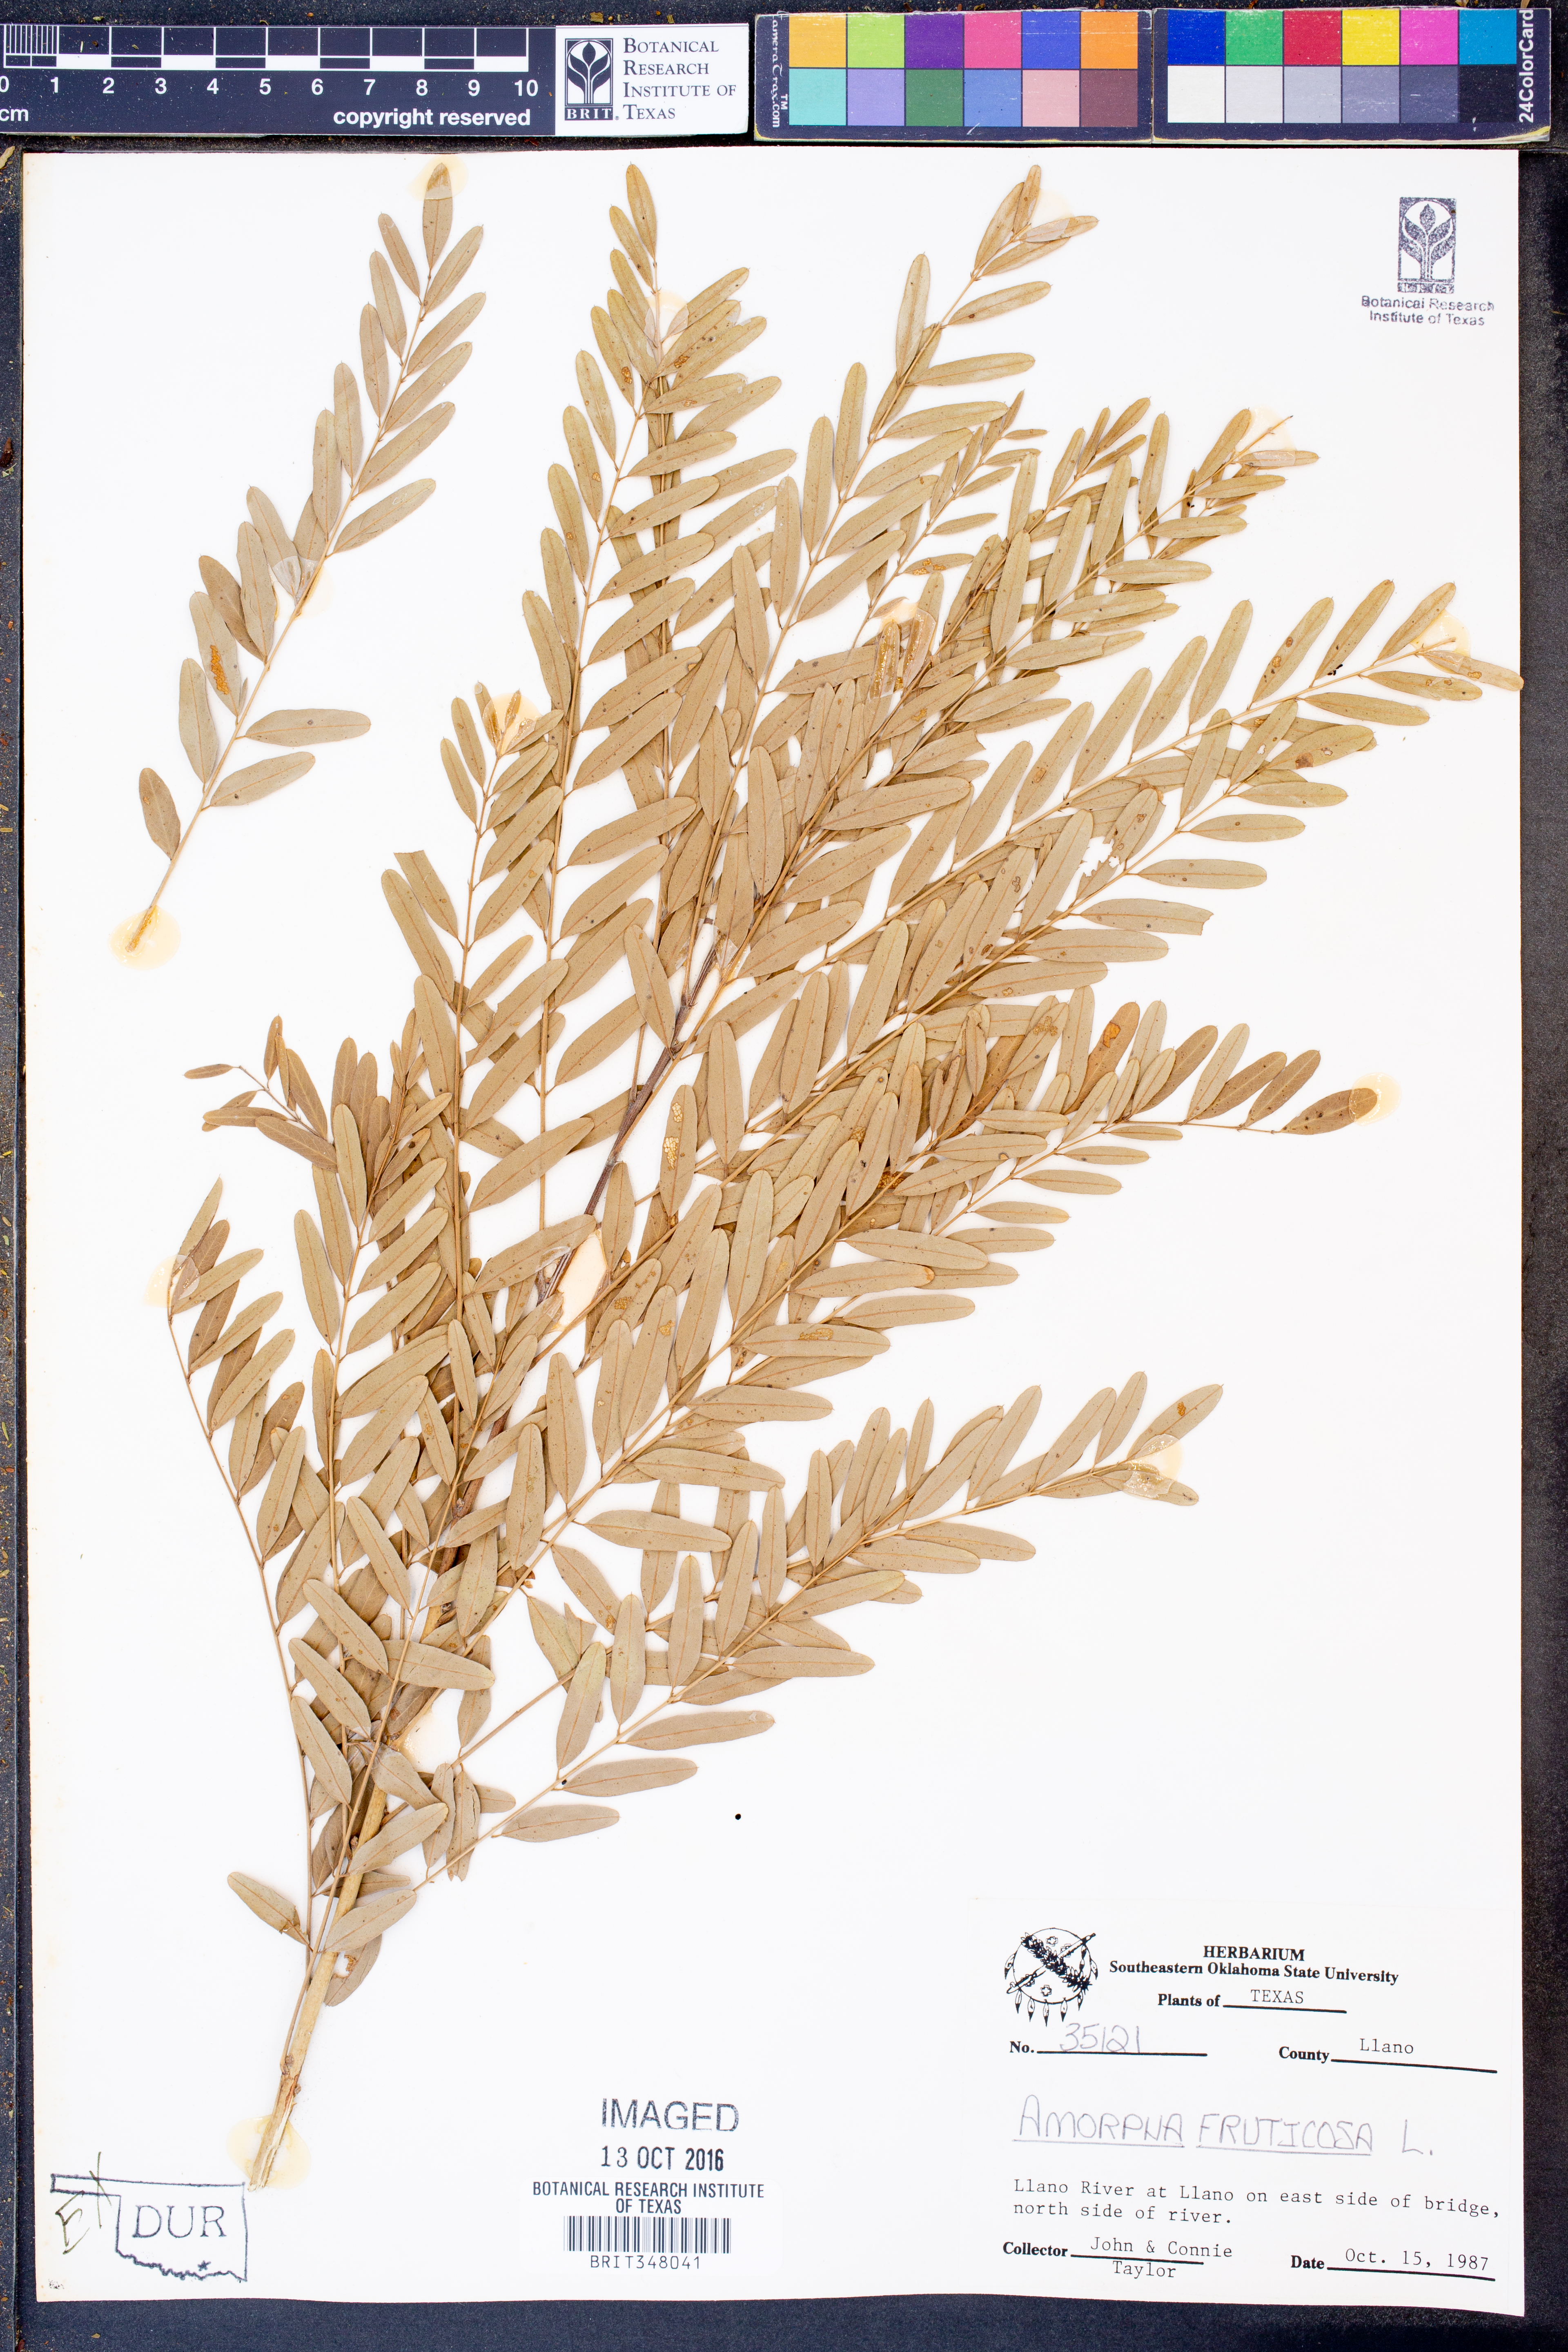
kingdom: Plantae
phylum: Tracheophyta
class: Magnoliopsida
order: Fabales
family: Fabaceae
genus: Amorpha
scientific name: Amorpha fruticosa
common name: False indigo
